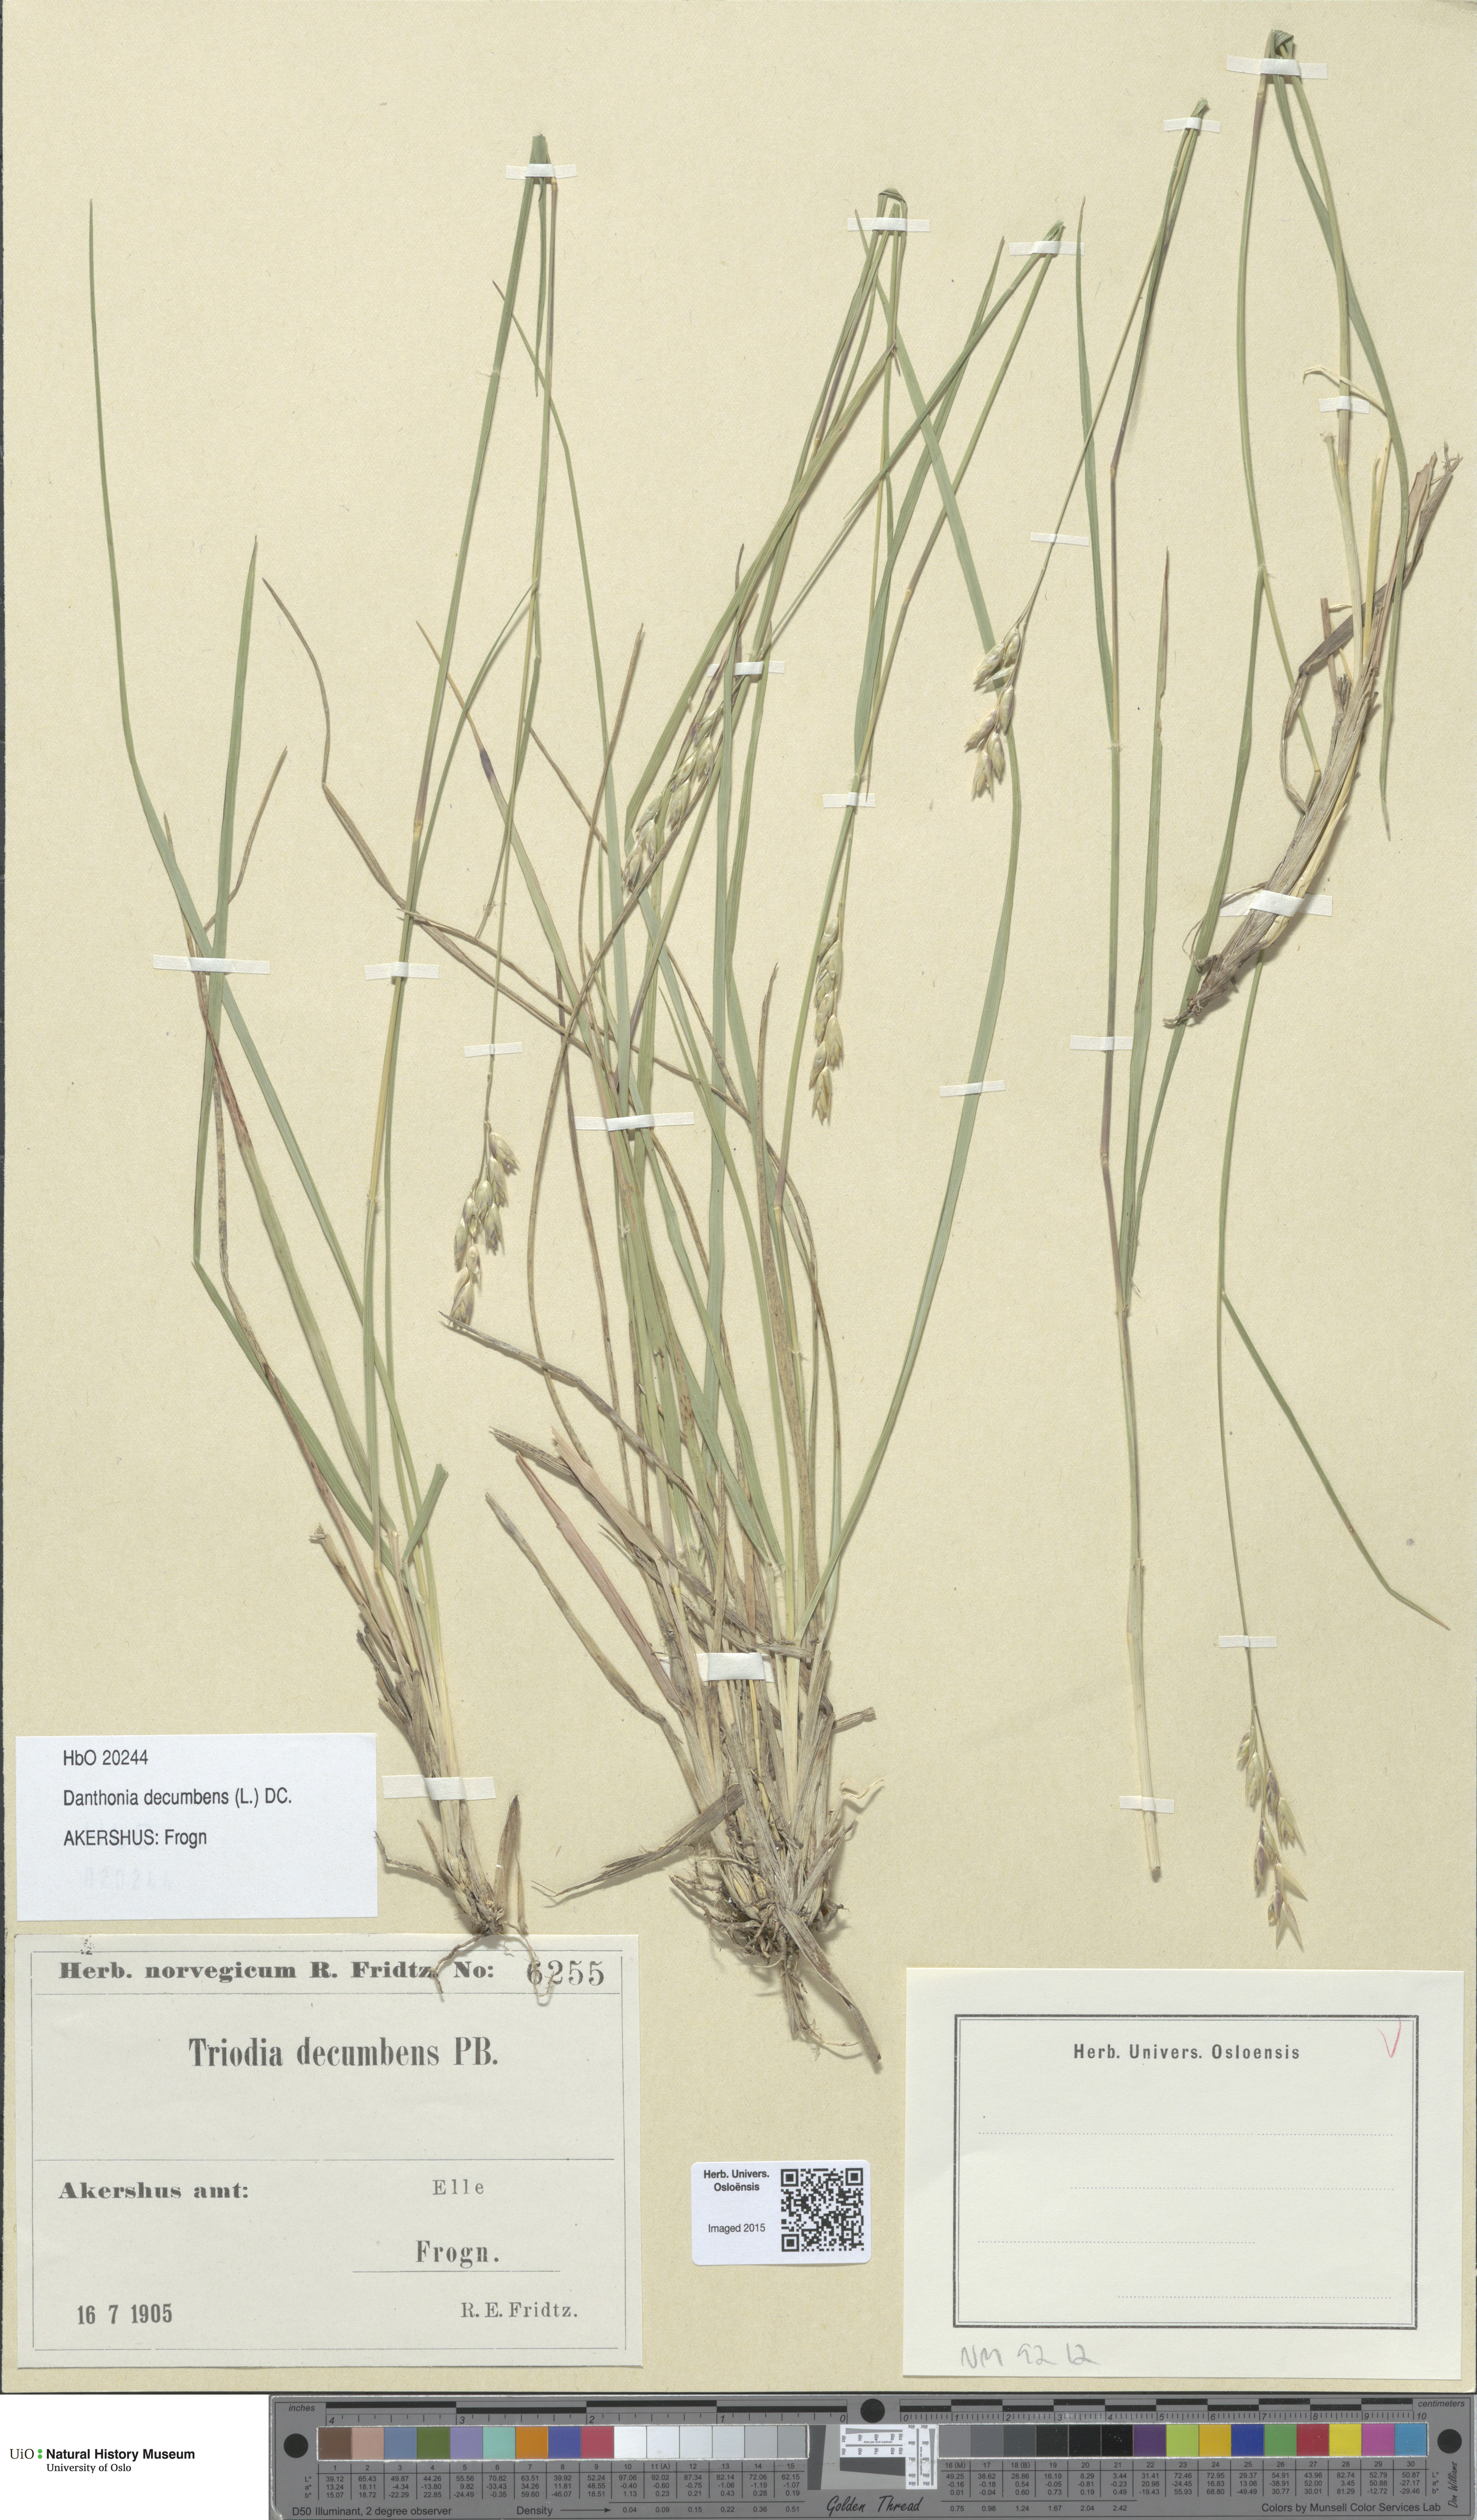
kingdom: Plantae
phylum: Tracheophyta
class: Liliopsida
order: Poales
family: Poaceae
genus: Danthonia
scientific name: Danthonia decumbens
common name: Common heathgrass
